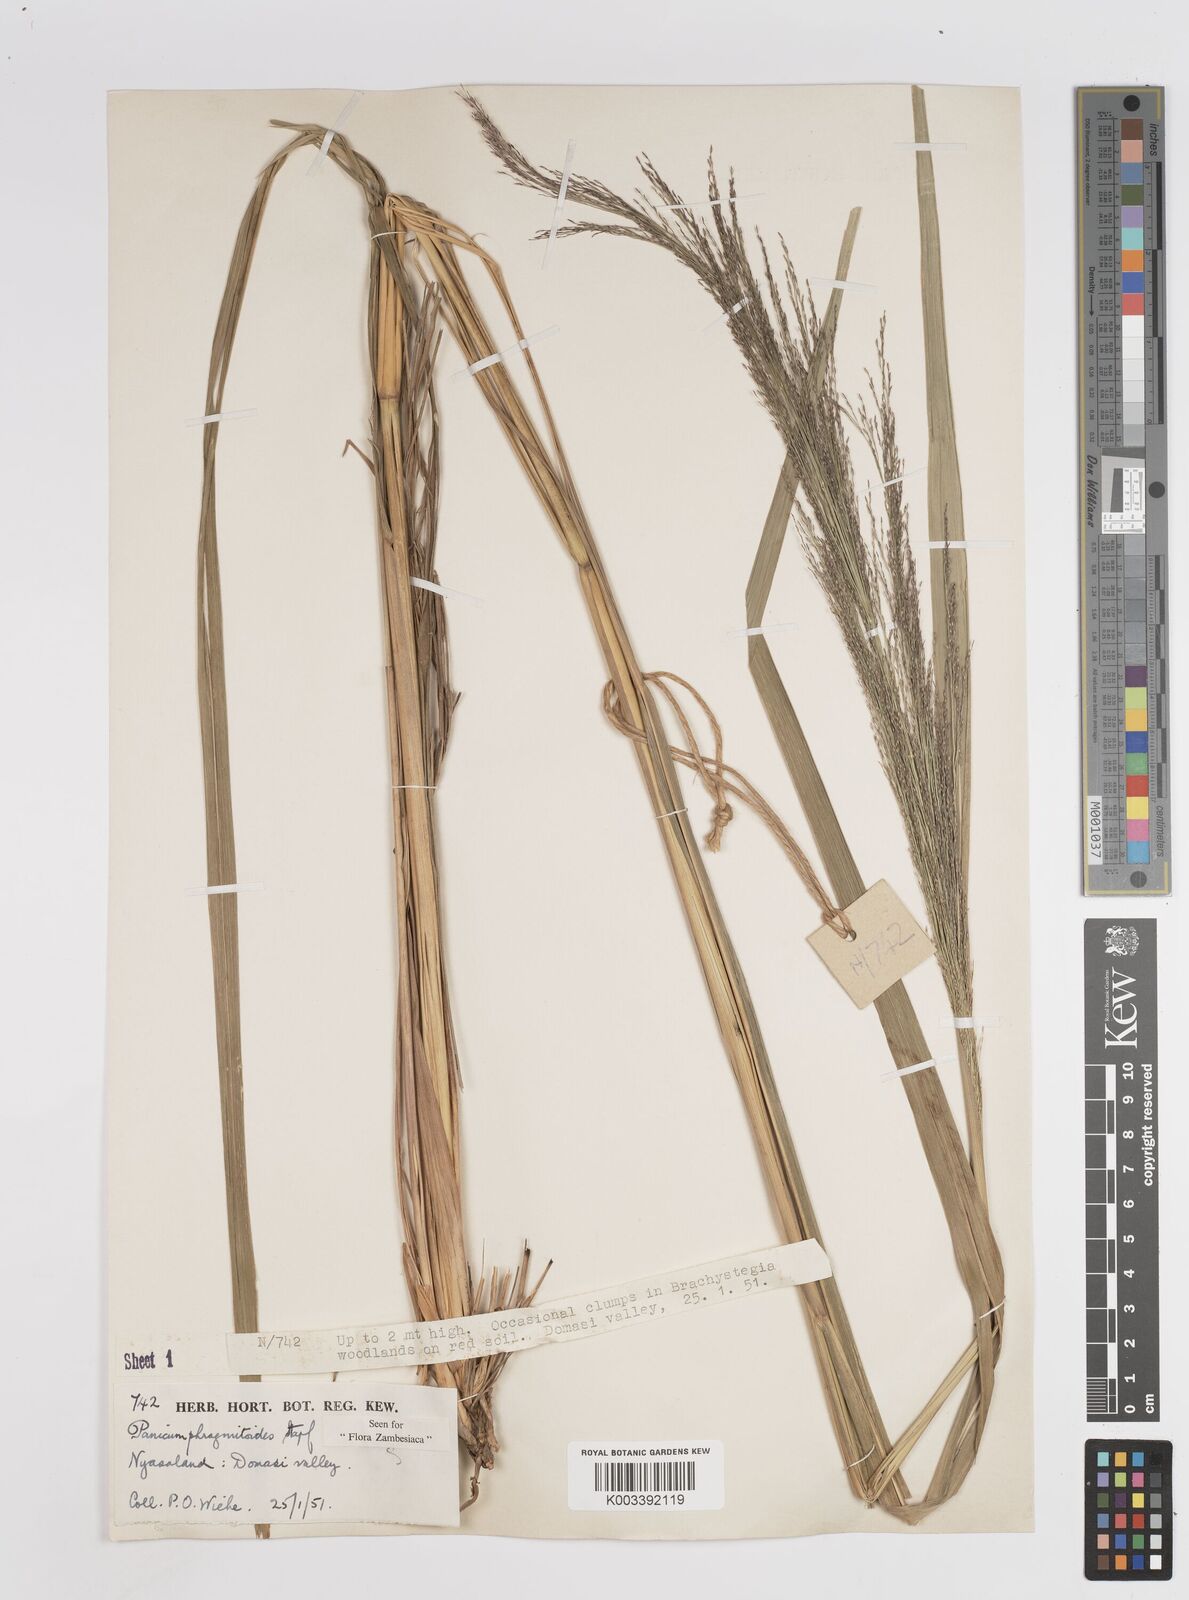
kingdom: Plantae
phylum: Tracheophyta
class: Liliopsida
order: Poales
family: Poaceae
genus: Panicum
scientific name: Panicum phragmitoides
